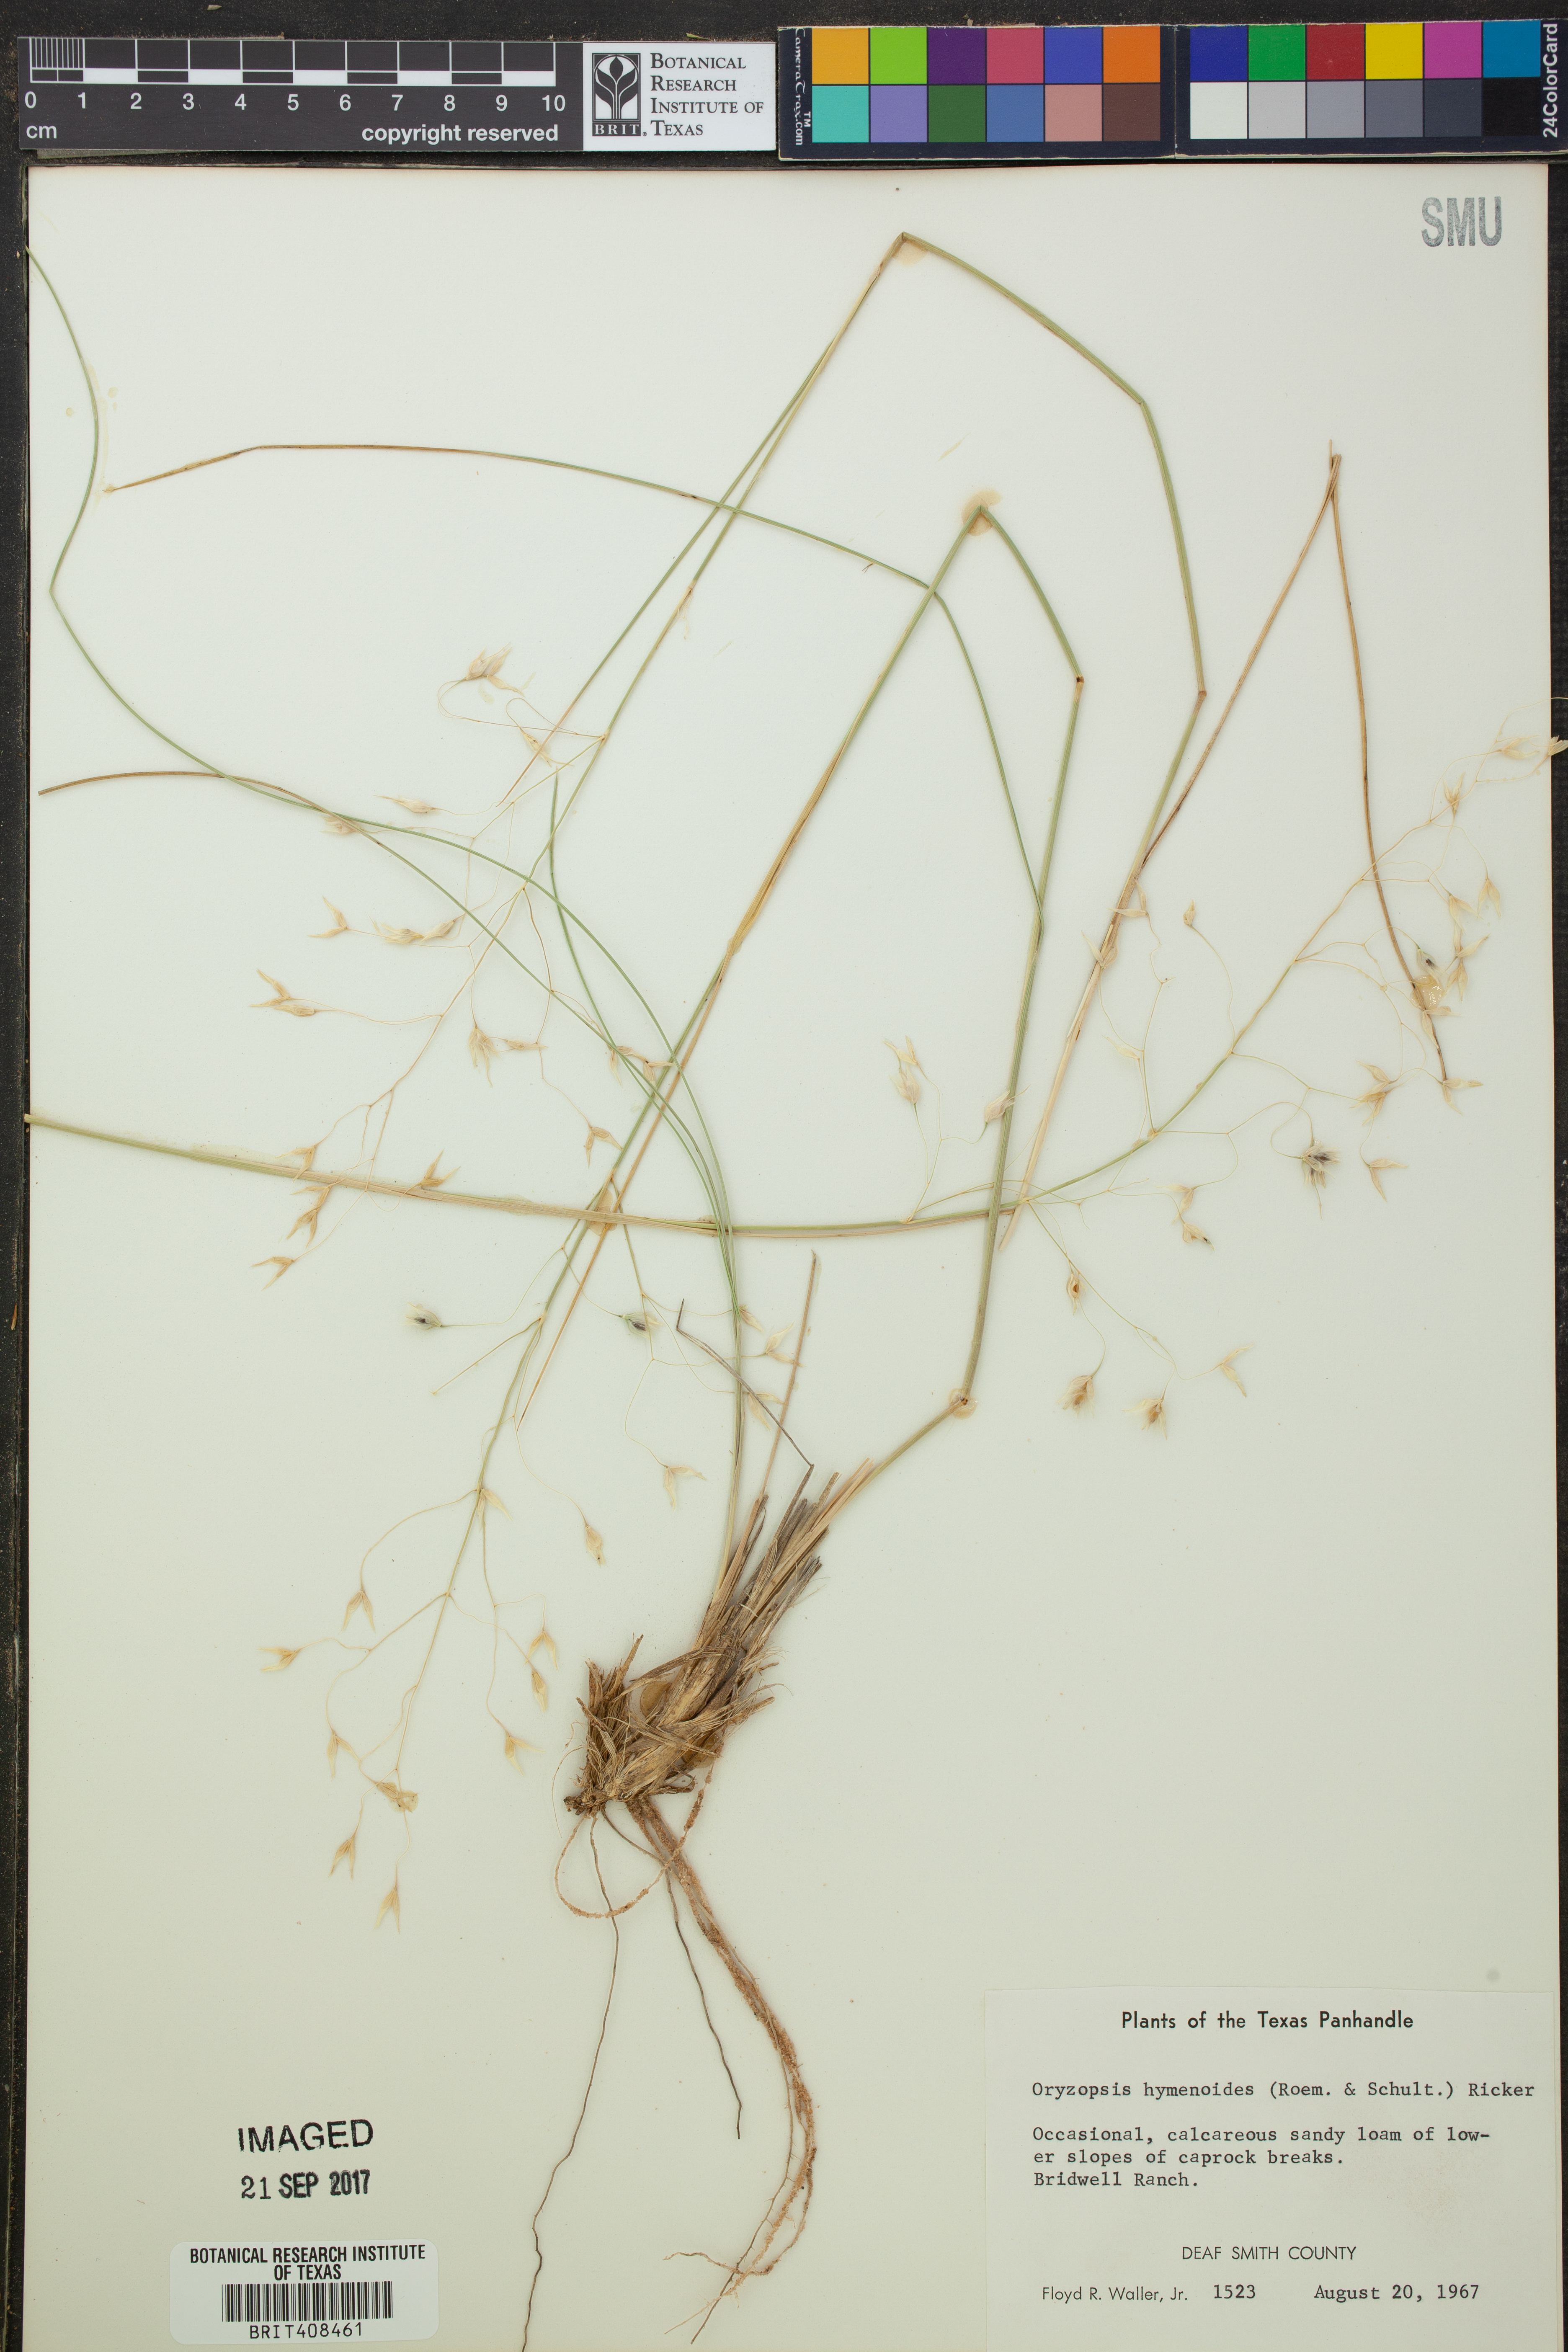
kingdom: Plantae
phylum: Tracheophyta
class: Liliopsida
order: Poales
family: Poaceae
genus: Eriocoma
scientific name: Eriocoma hymenoides
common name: Indian mountain ricegrass
